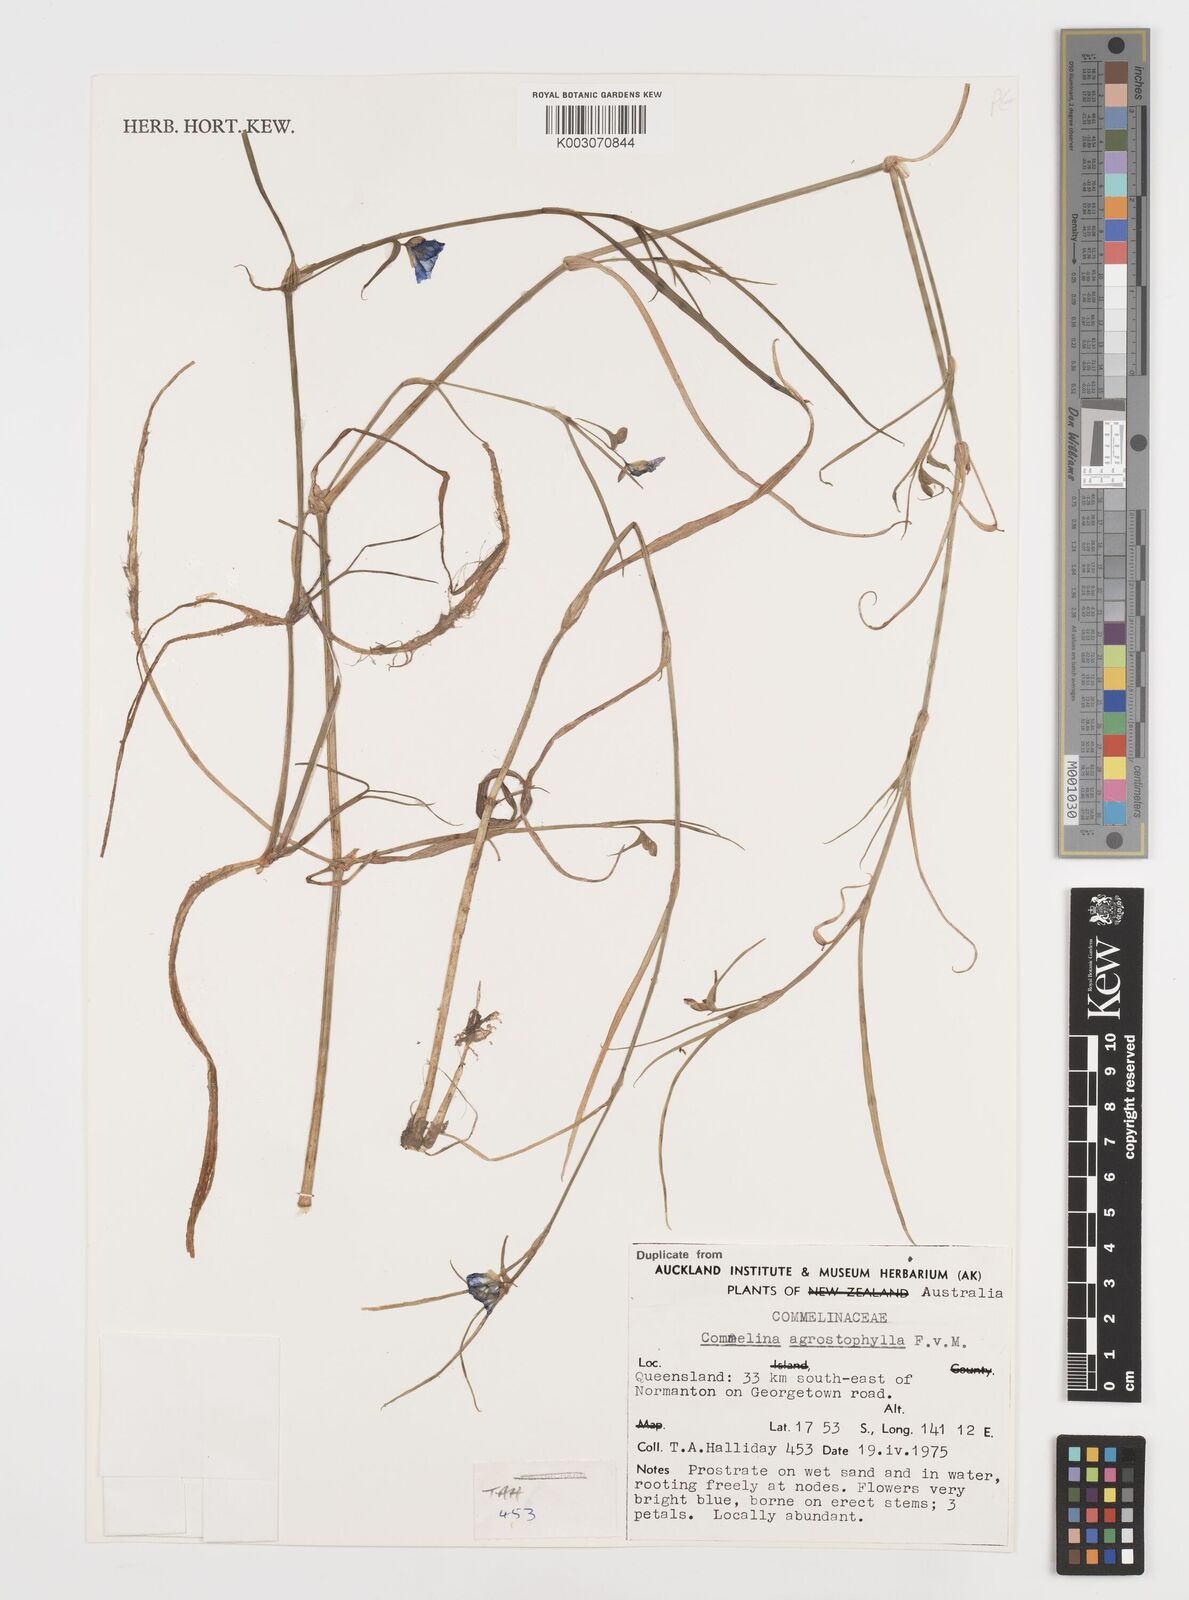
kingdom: Plantae
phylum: Tracheophyta
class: Liliopsida
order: Commelinales
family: Commelinaceae
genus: Commelina
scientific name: Commelina agrostophylla
